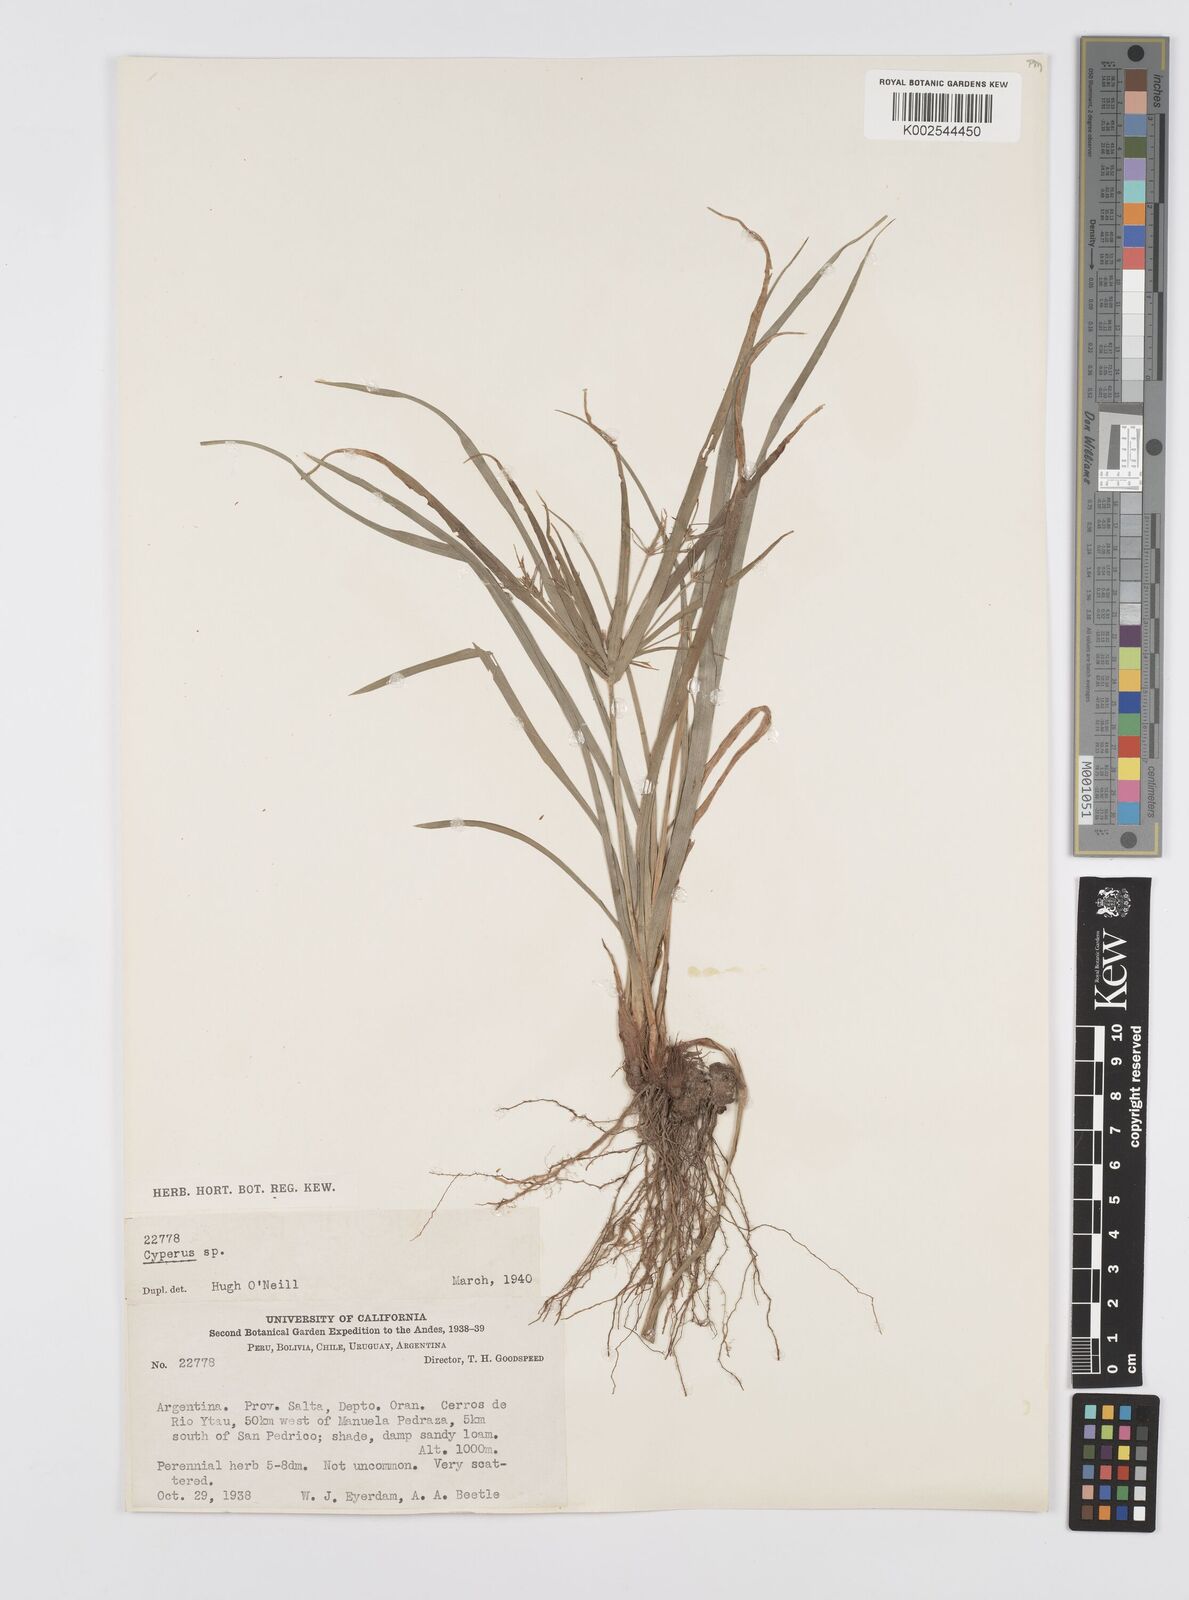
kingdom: Plantae
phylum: Tracheophyta
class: Liliopsida
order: Poales
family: Cyperaceae
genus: Cyperus
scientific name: Cyperus
